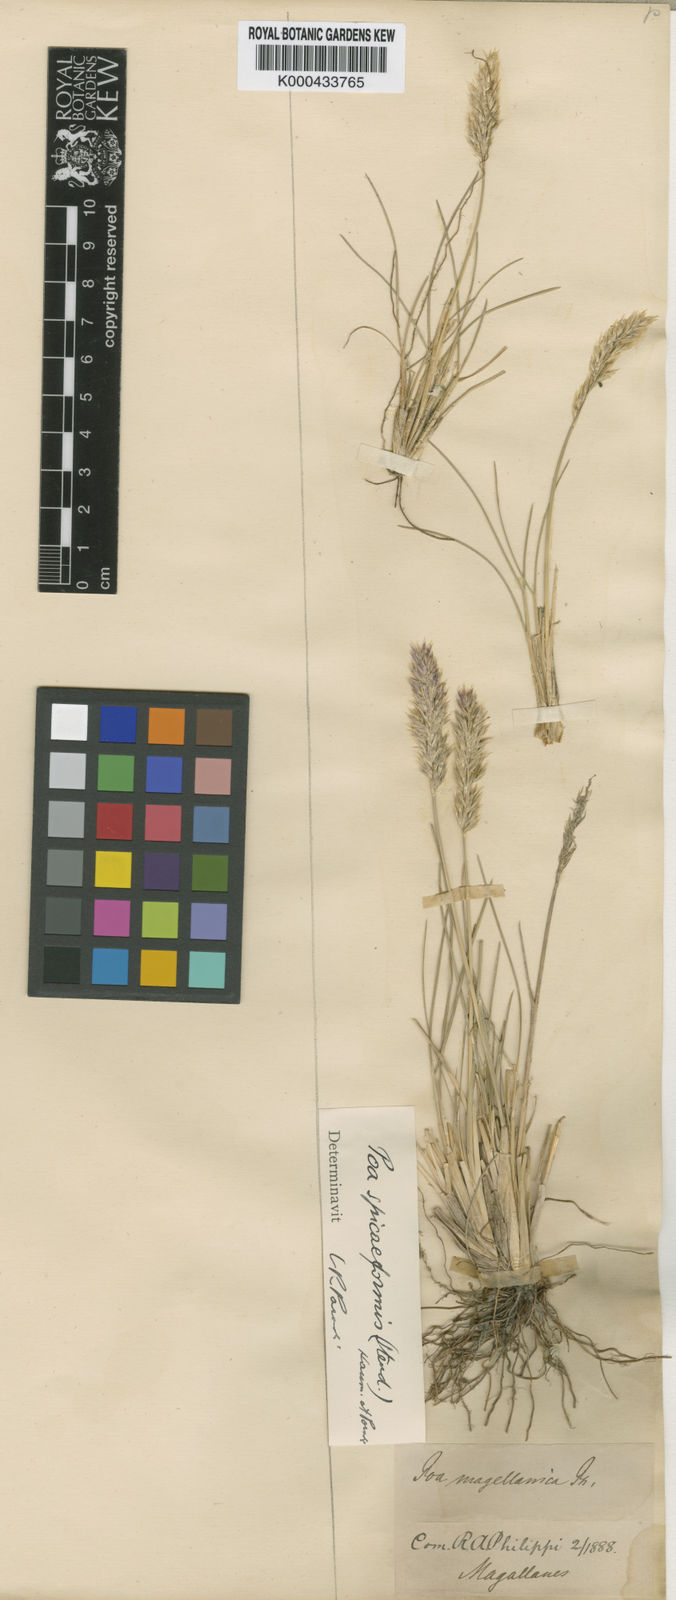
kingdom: Plantae
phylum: Tracheophyta
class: Liliopsida
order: Poales
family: Poaceae
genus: Poa
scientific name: Poa spiciformis
